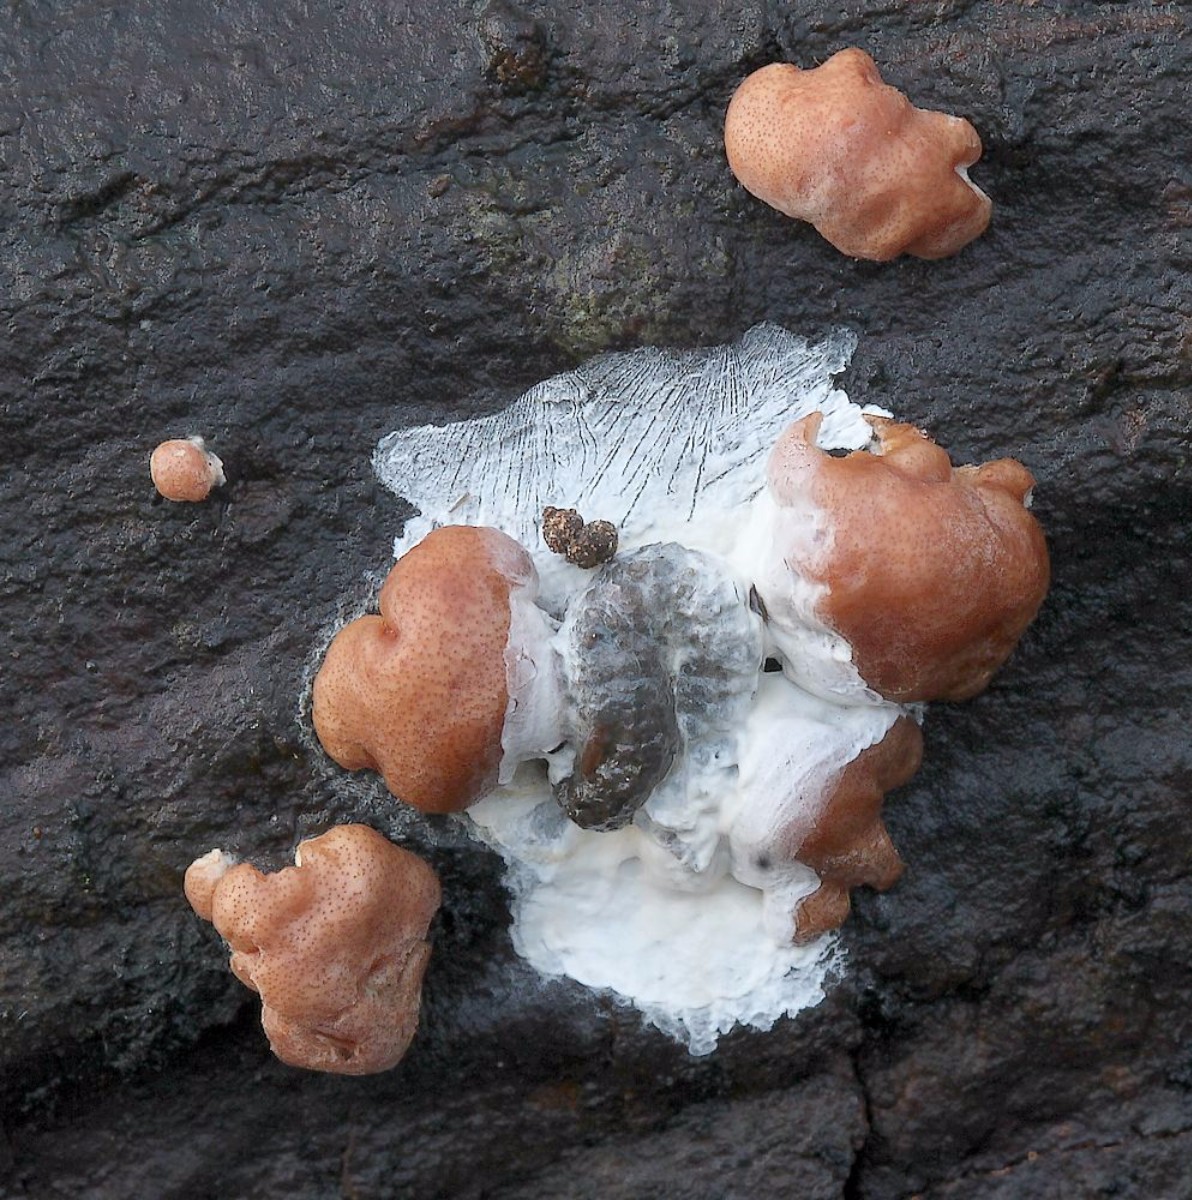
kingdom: Fungi
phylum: Ascomycota
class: Sordariomycetes
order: Hypocreales
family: Hypocreaceae
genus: Trichoderma
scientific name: Trichoderma europaeum
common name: rosabrun kødkerne
